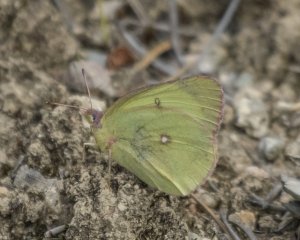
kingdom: Animalia
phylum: Arthropoda
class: Insecta
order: Lepidoptera
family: Pieridae
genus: Colias
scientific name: Colias interior
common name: Pink-edged Sulphur
